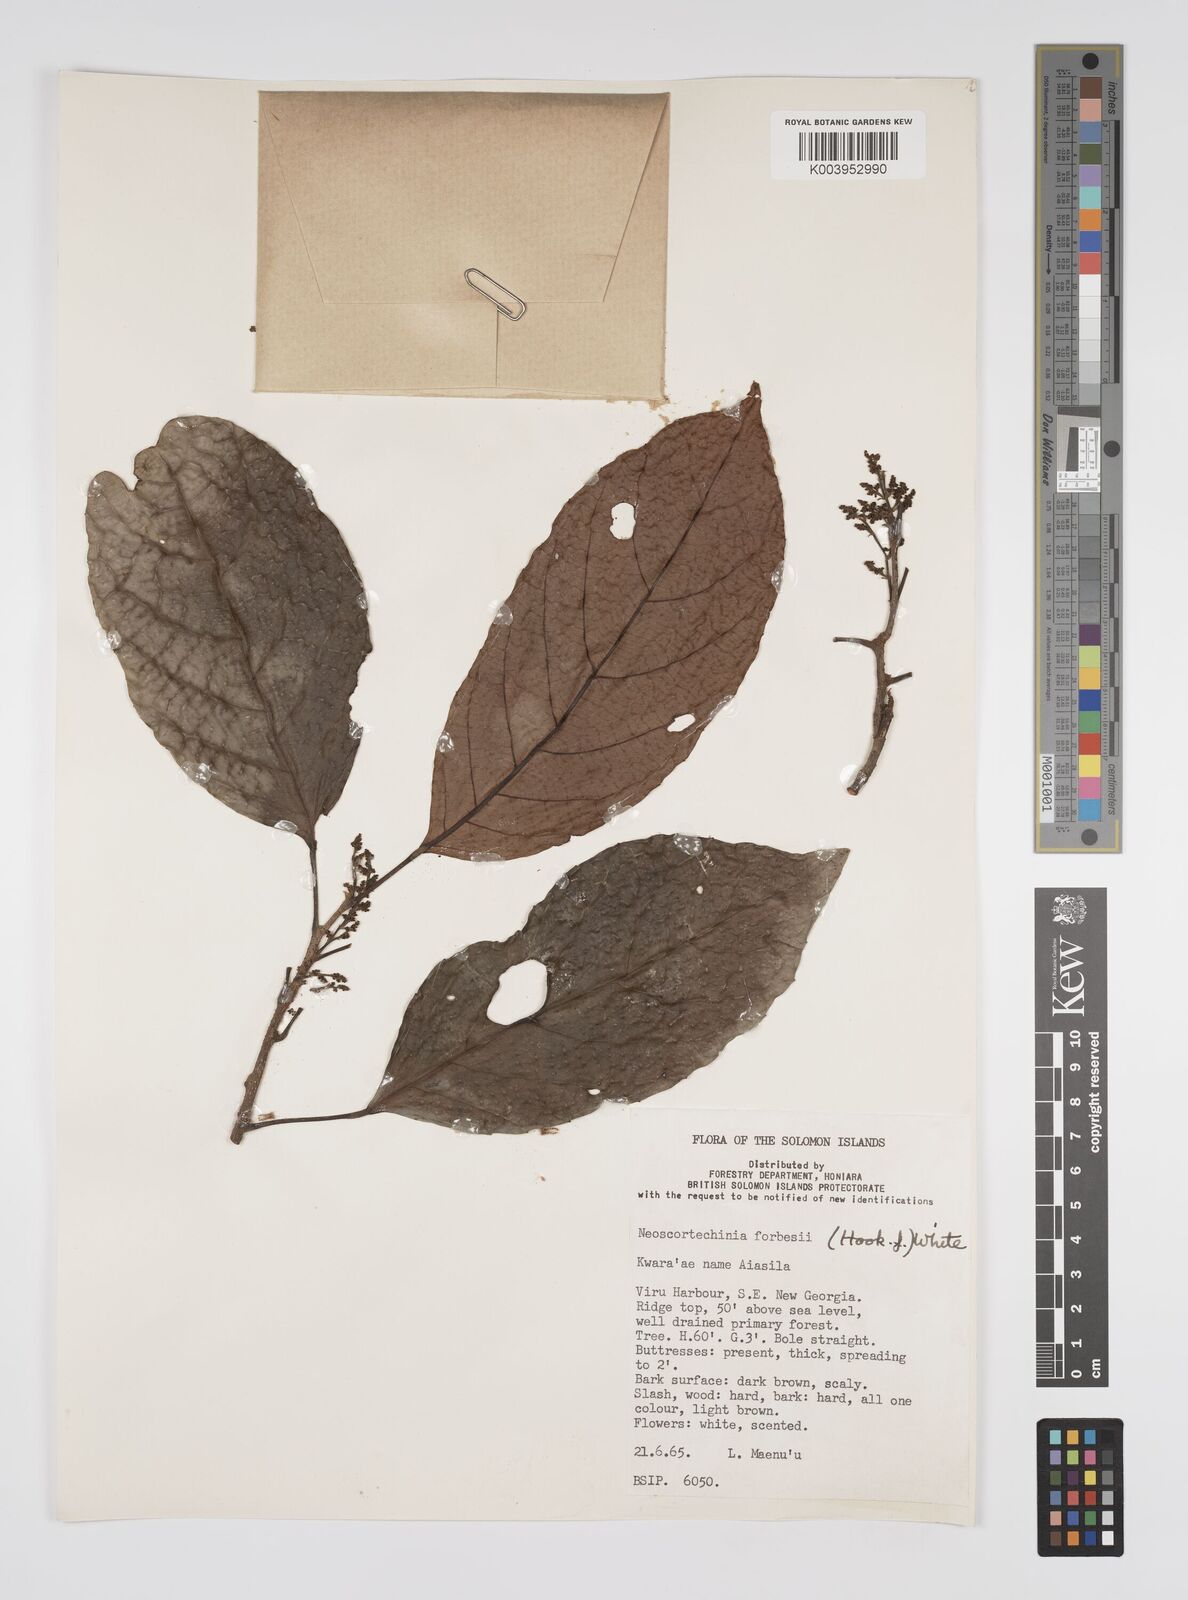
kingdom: Plantae
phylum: Tracheophyta
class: Magnoliopsida
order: Malpighiales
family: Euphorbiaceae
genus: Neoscortechinia
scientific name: Neoscortechinia forbesii
